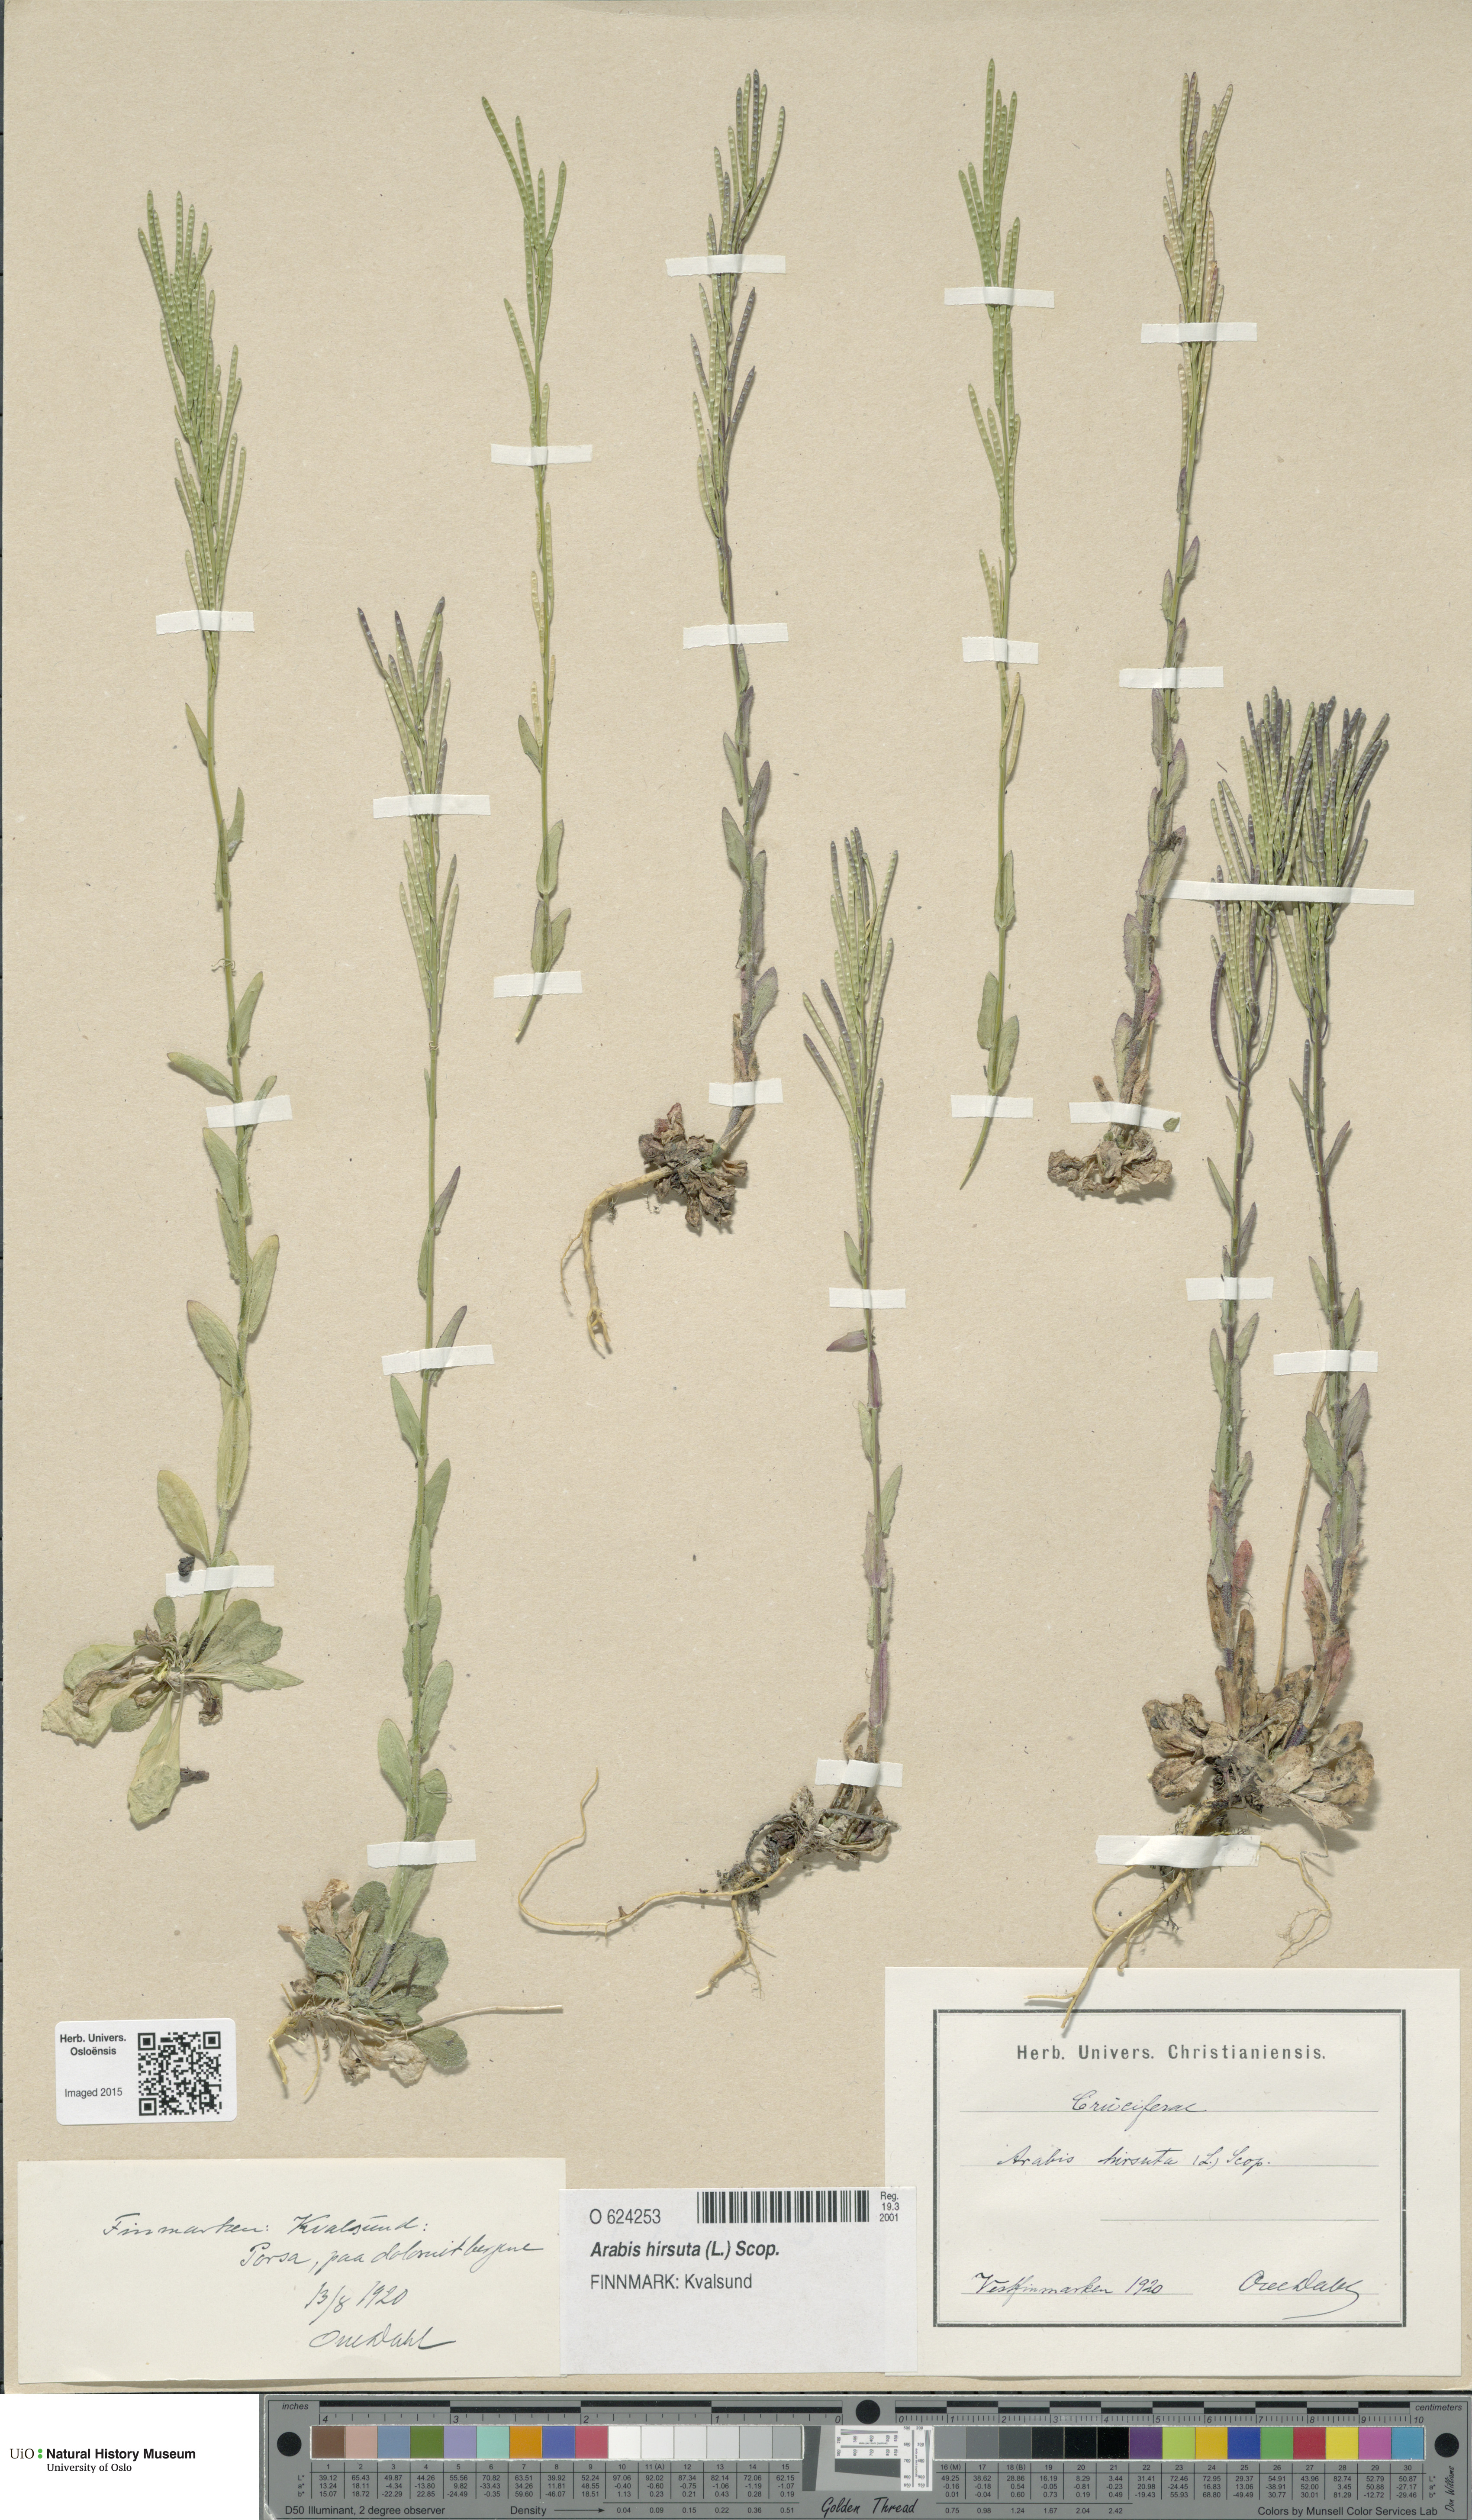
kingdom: Plantae
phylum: Tracheophyta
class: Magnoliopsida
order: Brassicales
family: Brassicaceae
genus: Arabis
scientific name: Arabis hirsuta
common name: Hairy rock-cress
